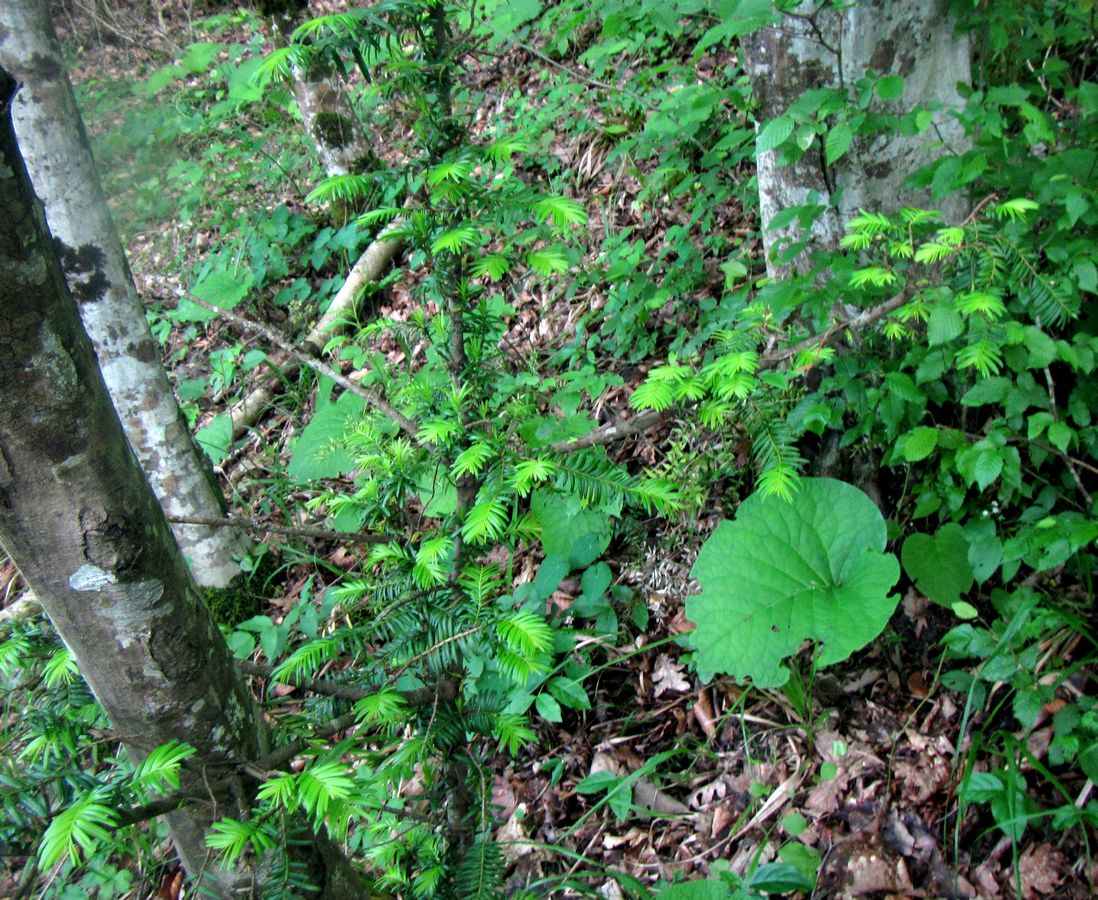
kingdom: Plantae
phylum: Tracheophyta
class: Pinopsida
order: Pinales
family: Taxaceae
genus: Taxus
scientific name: Taxus baccata
